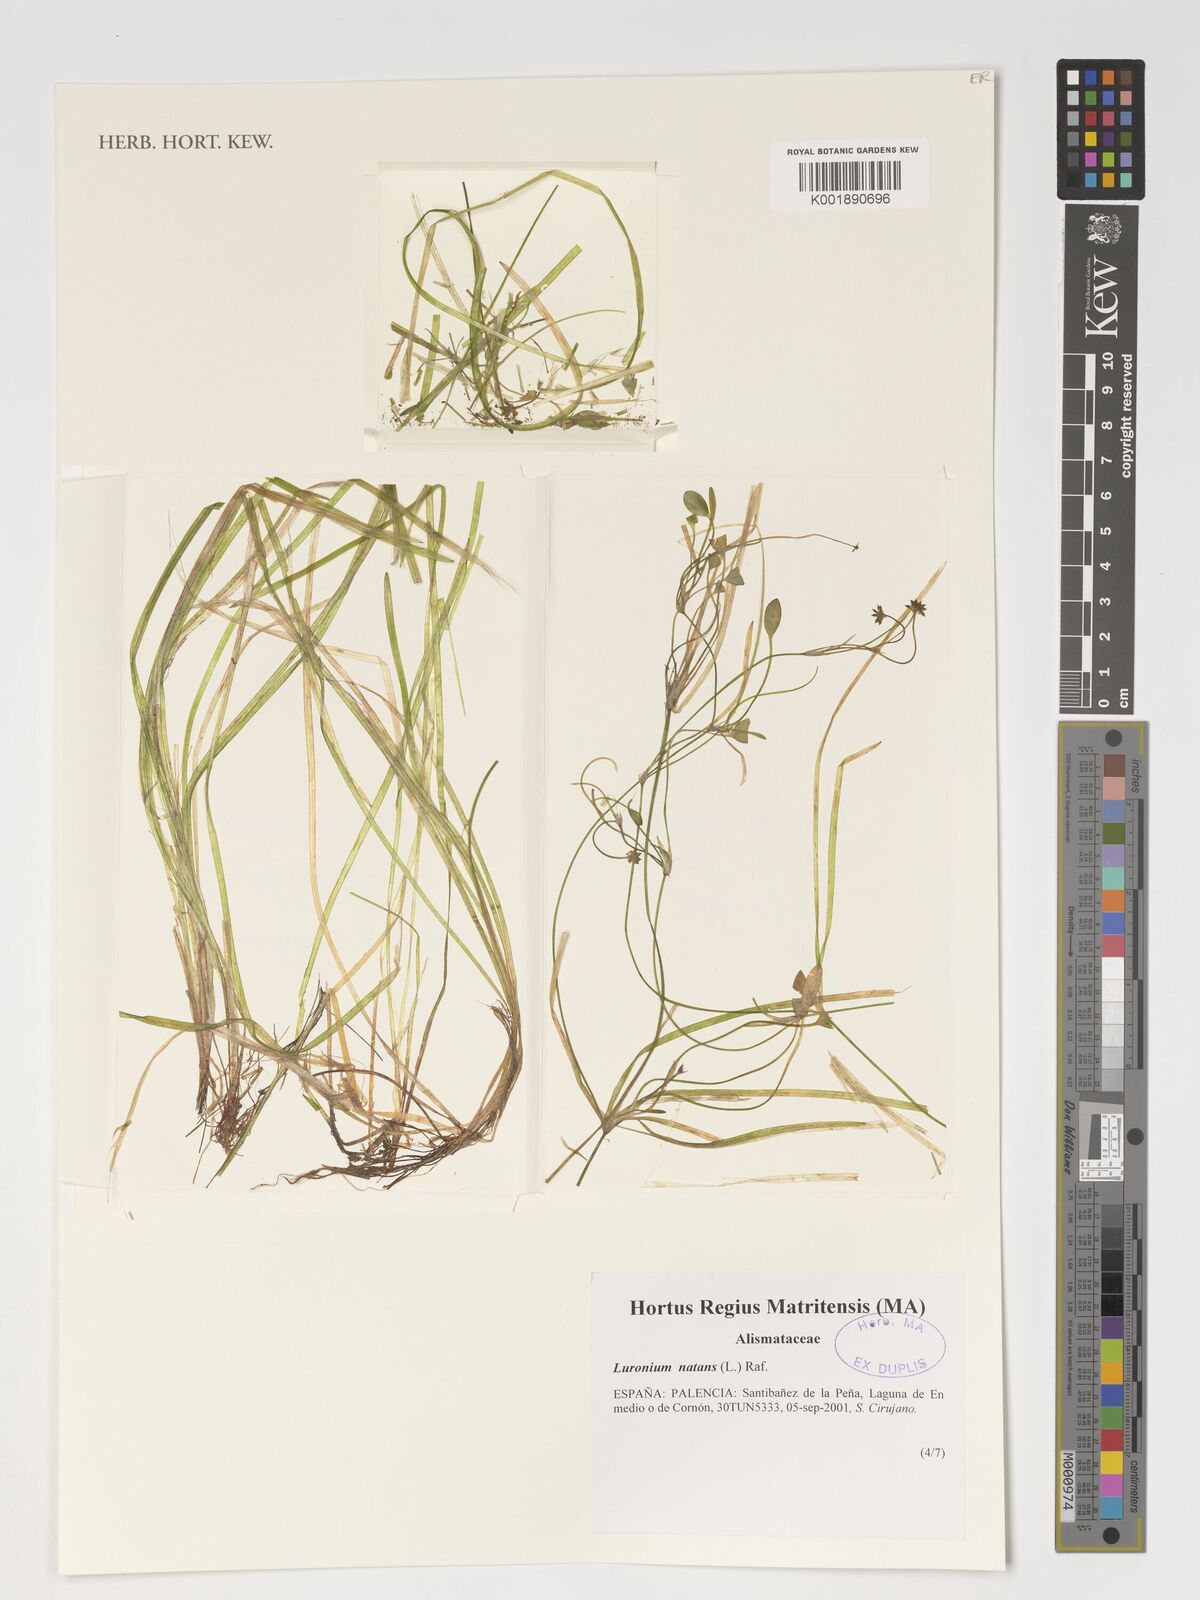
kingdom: Plantae
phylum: Tracheophyta
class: Liliopsida
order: Alismatales
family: Alismataceae
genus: Luronium
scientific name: Luronium natans
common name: Floating water-plantain
